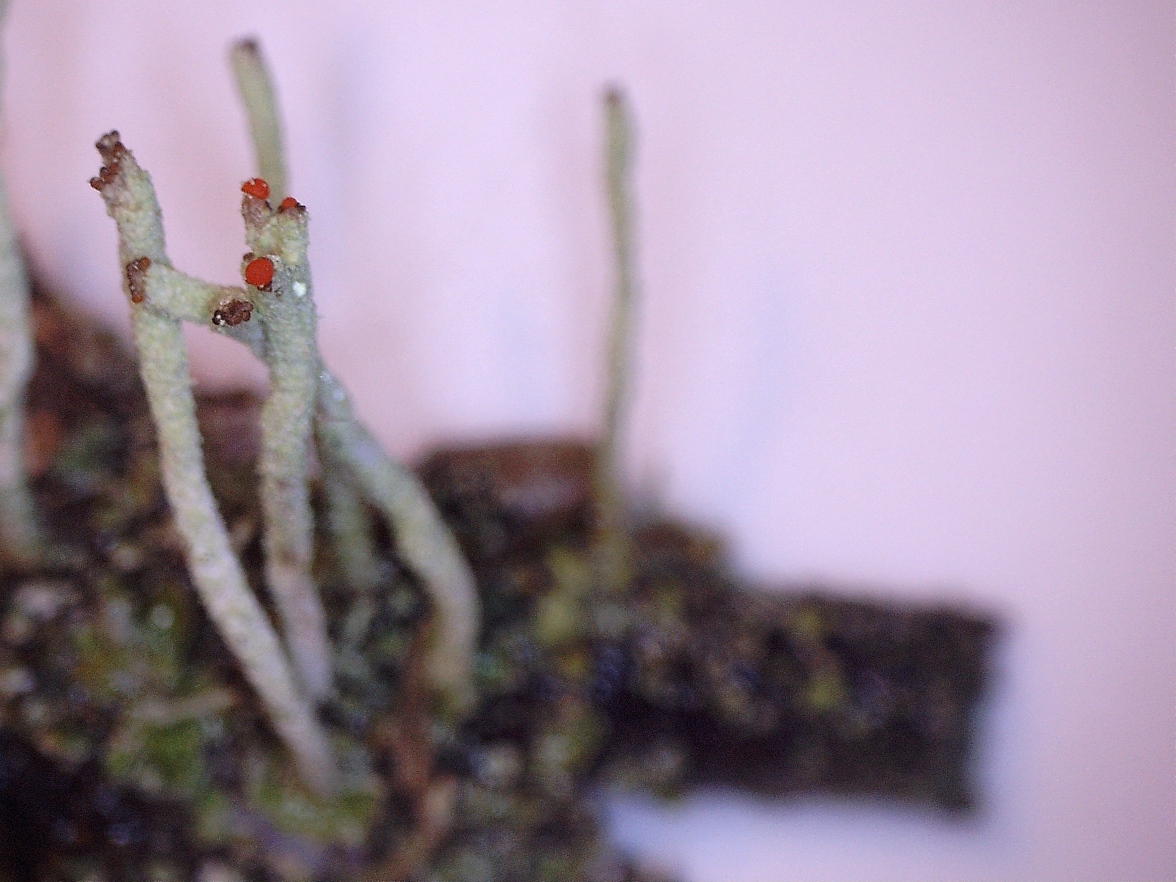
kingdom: Fungi
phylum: Ascomycota
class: Lecanoromycetes
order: Lecanorales
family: Cladoniaceae
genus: Cladonia
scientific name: Cladonia macilenta
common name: indsvunden bægerlav
